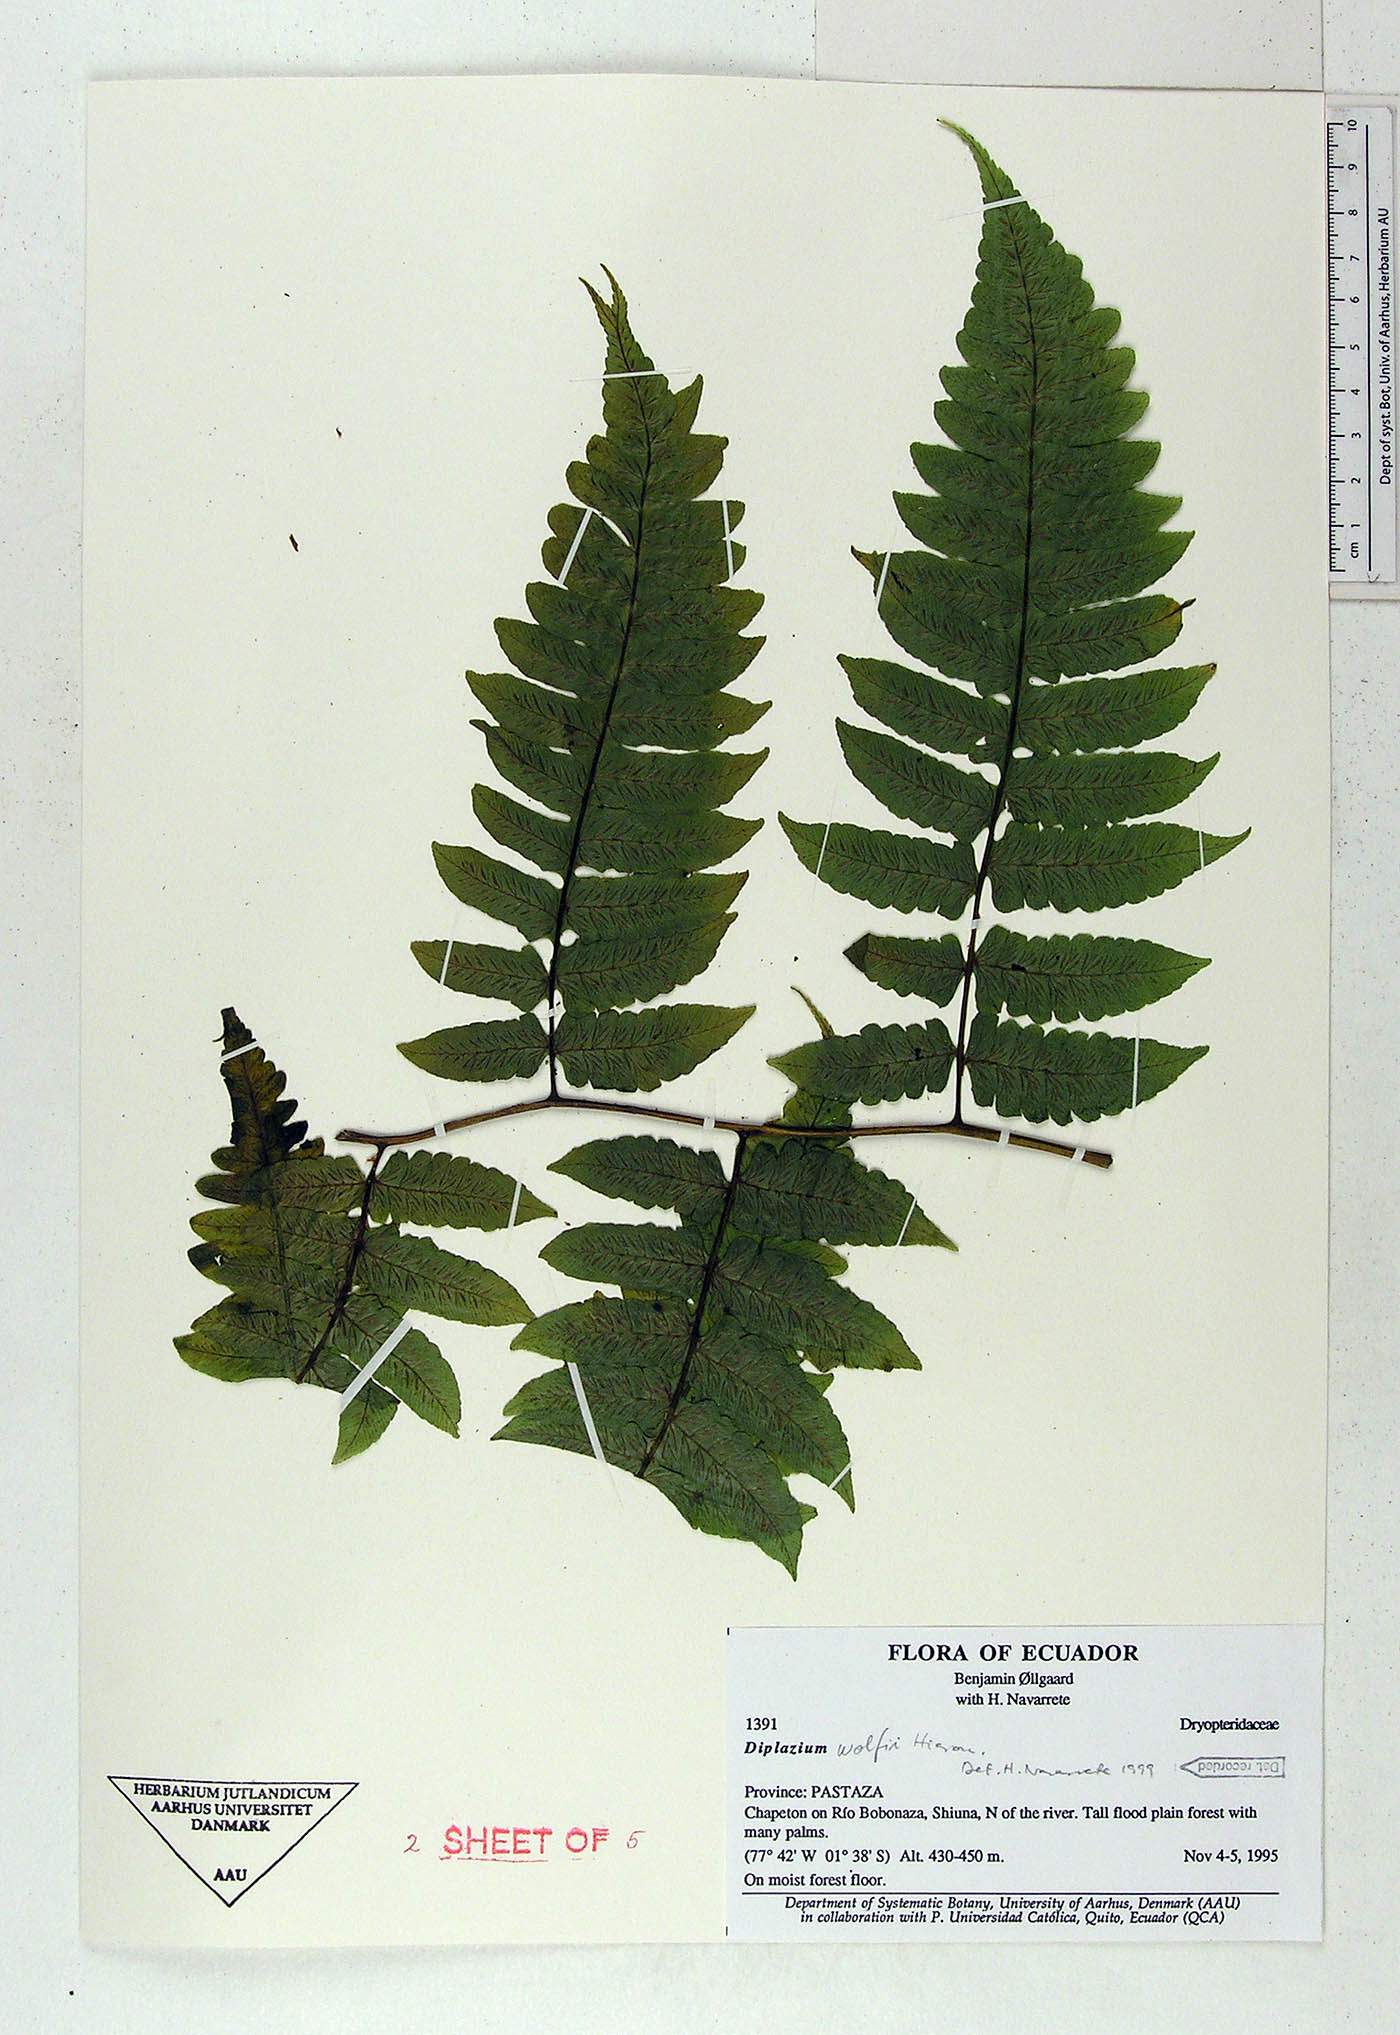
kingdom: Plantae
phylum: Tracheophyta
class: Polypodiopsida
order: Polypodiales
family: Athyriaceae
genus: Diplazium
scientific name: Diplazium wolfii
